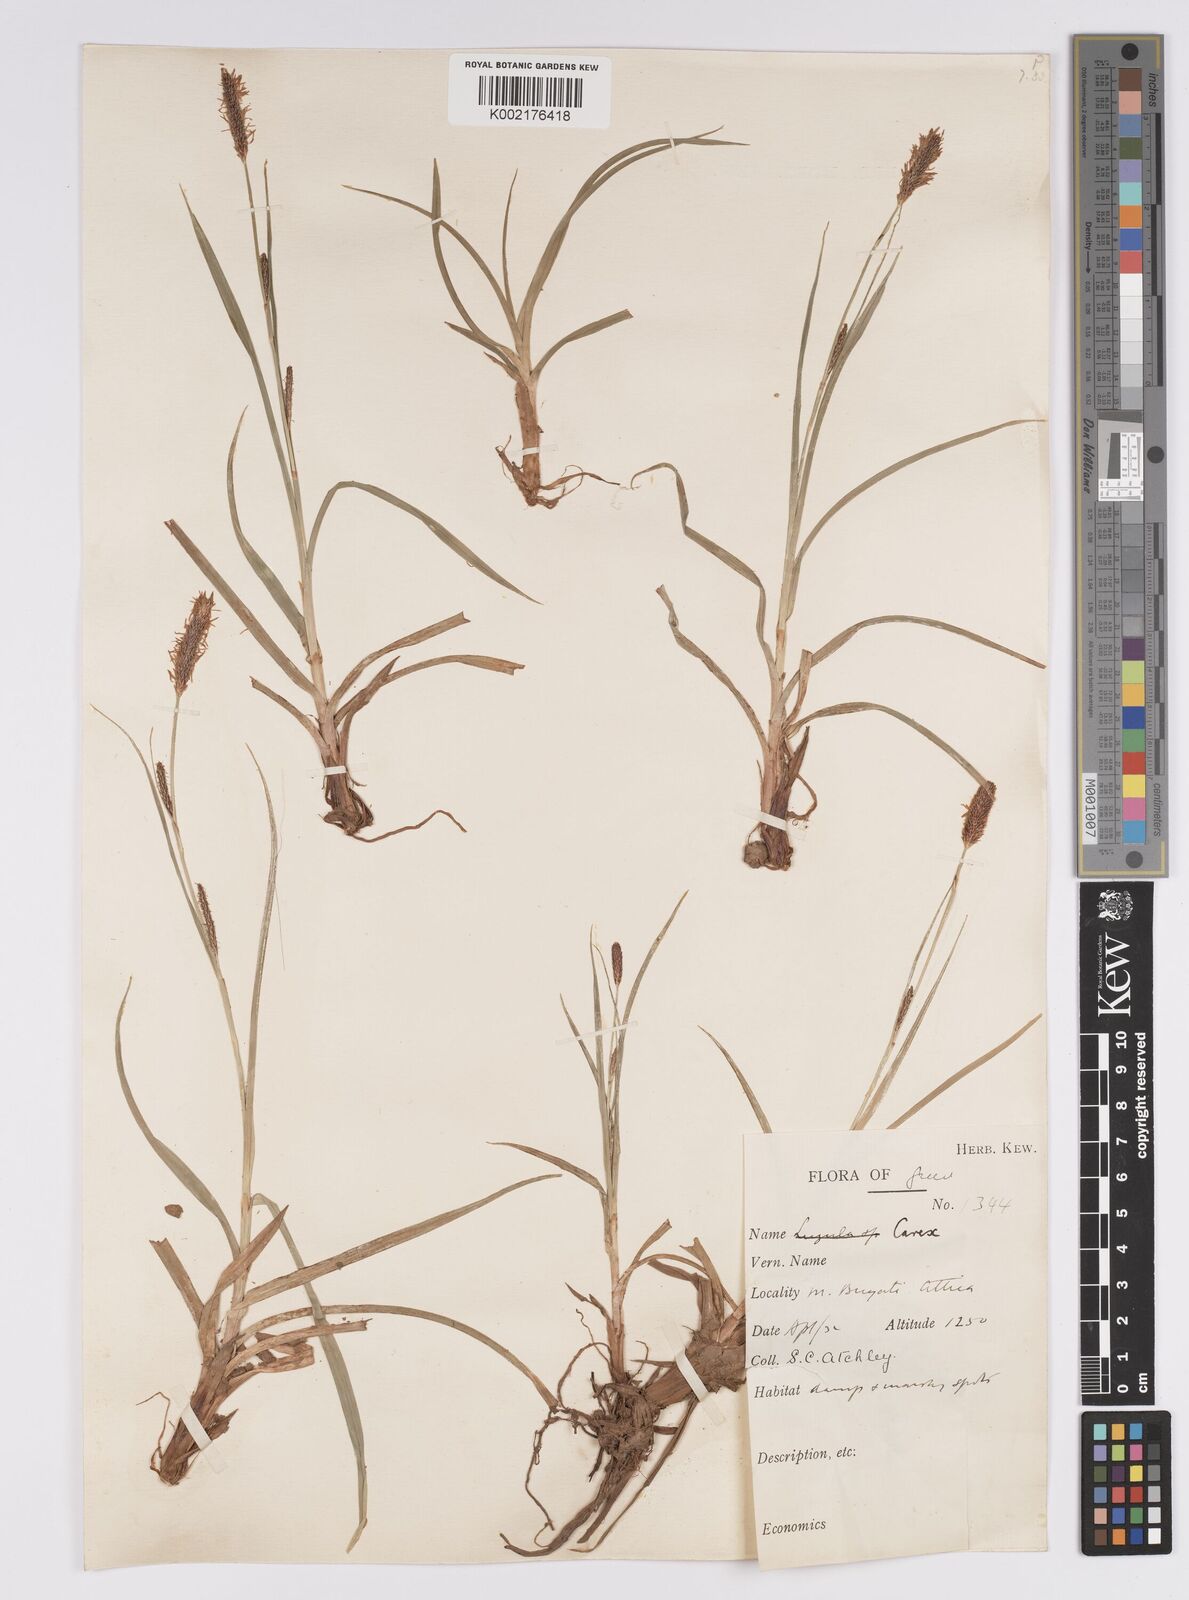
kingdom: Plantae
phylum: Tracheophyta
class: Liliopsida
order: Poales
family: Cyperaceae
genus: Carex
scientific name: Carex distans
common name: Distant sedge
